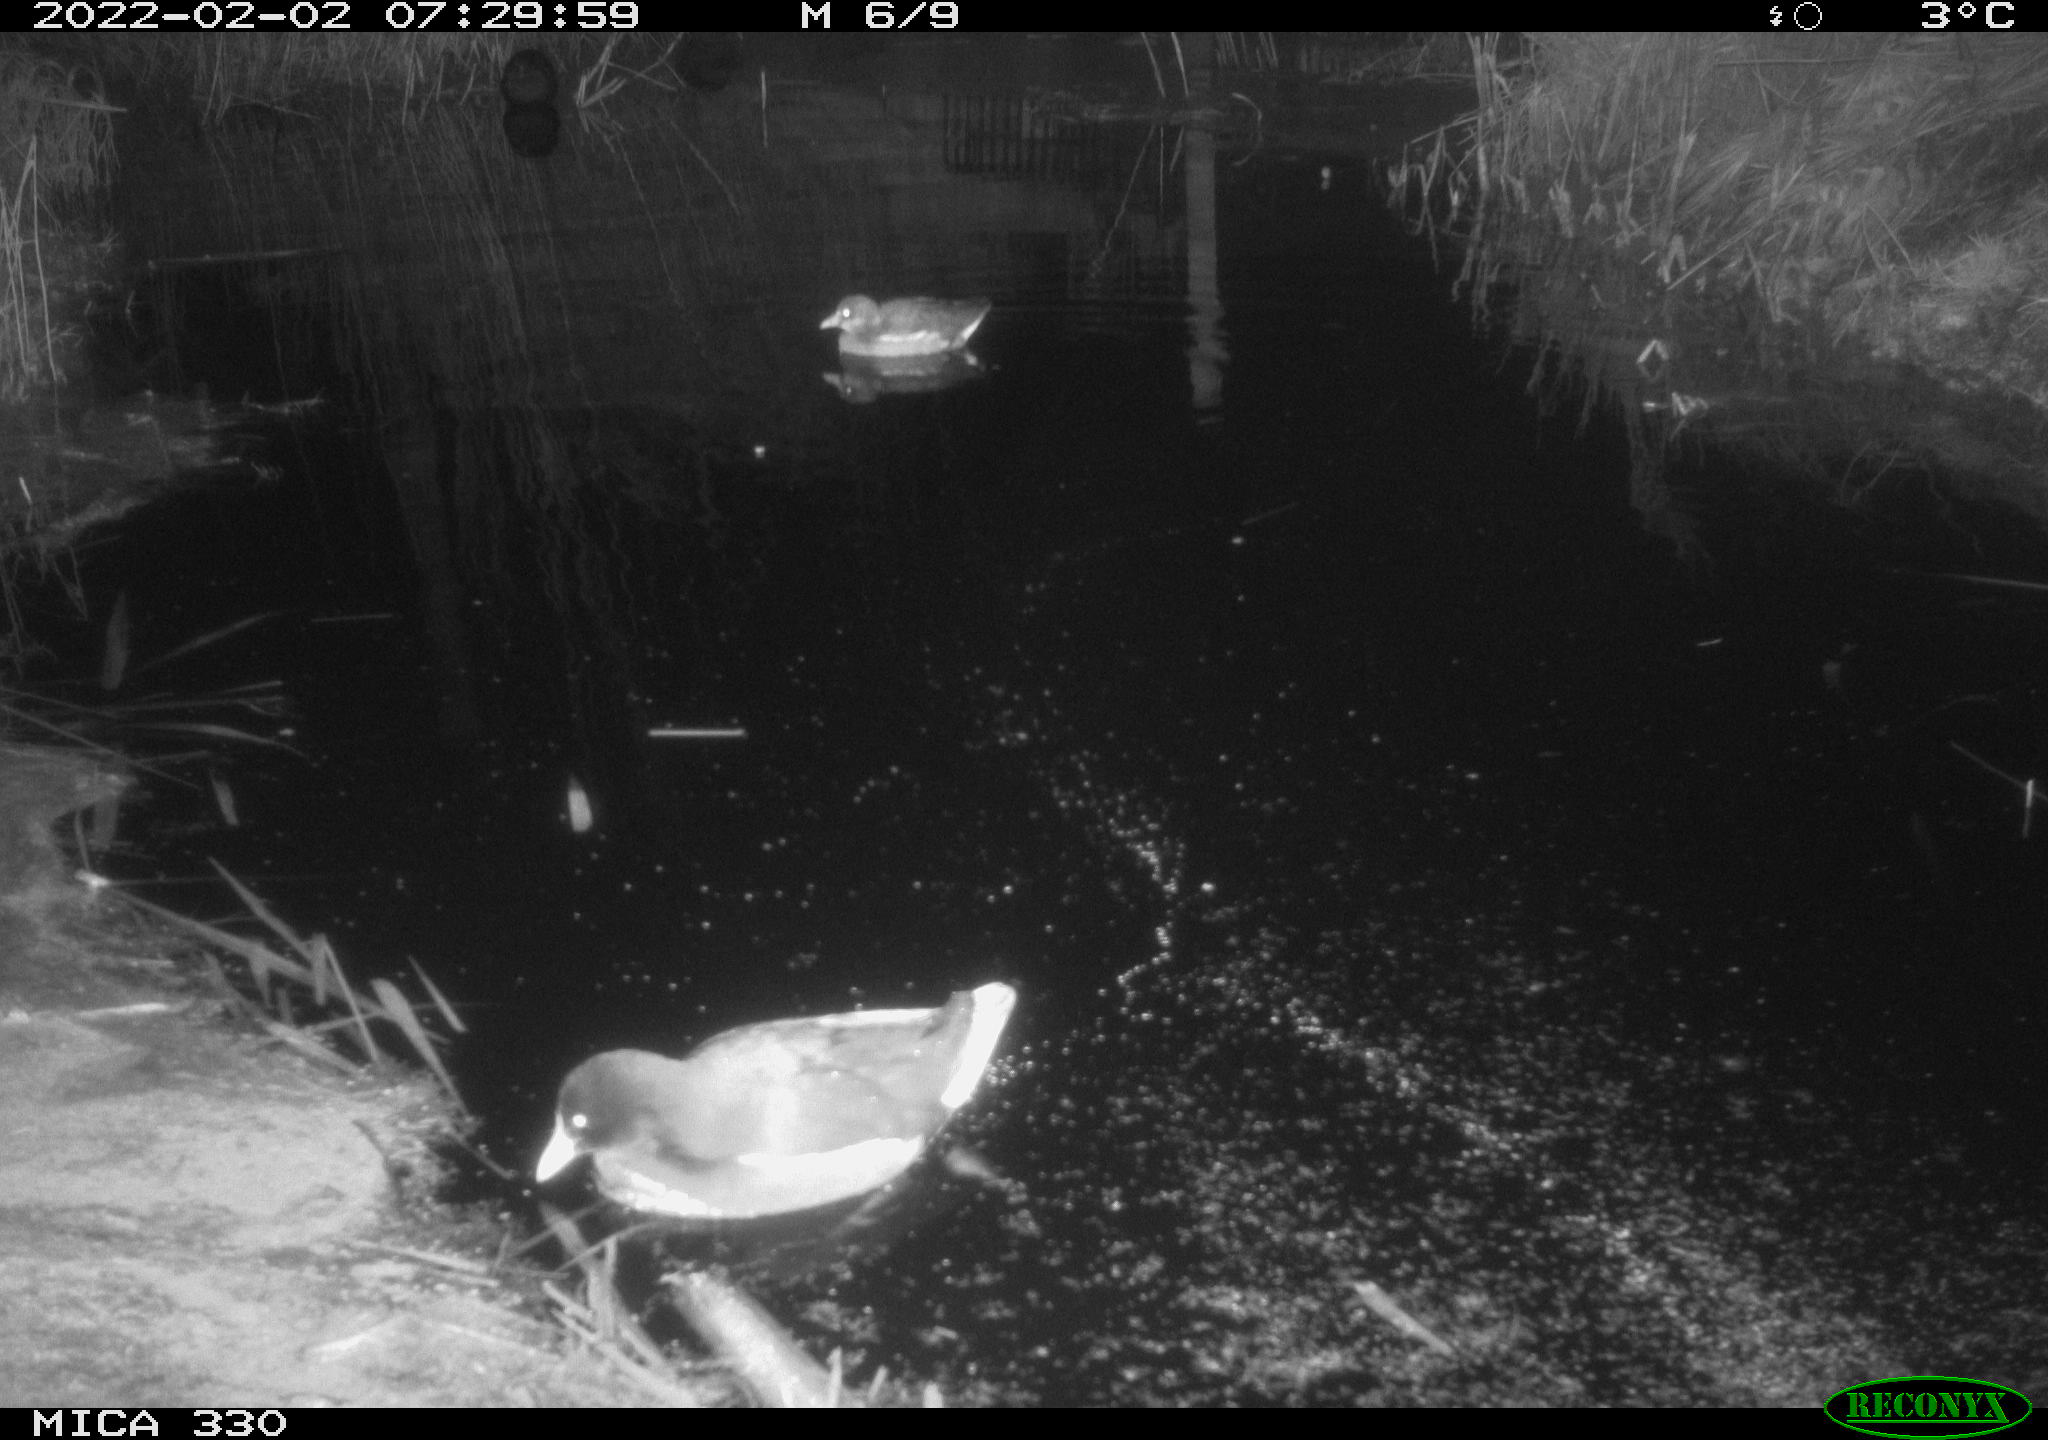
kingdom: Animalia
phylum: Chordata
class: Aves
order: Gruiformes
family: Rallidae
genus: Gallinula
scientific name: Gallinula chloropus
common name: Common moorhen
